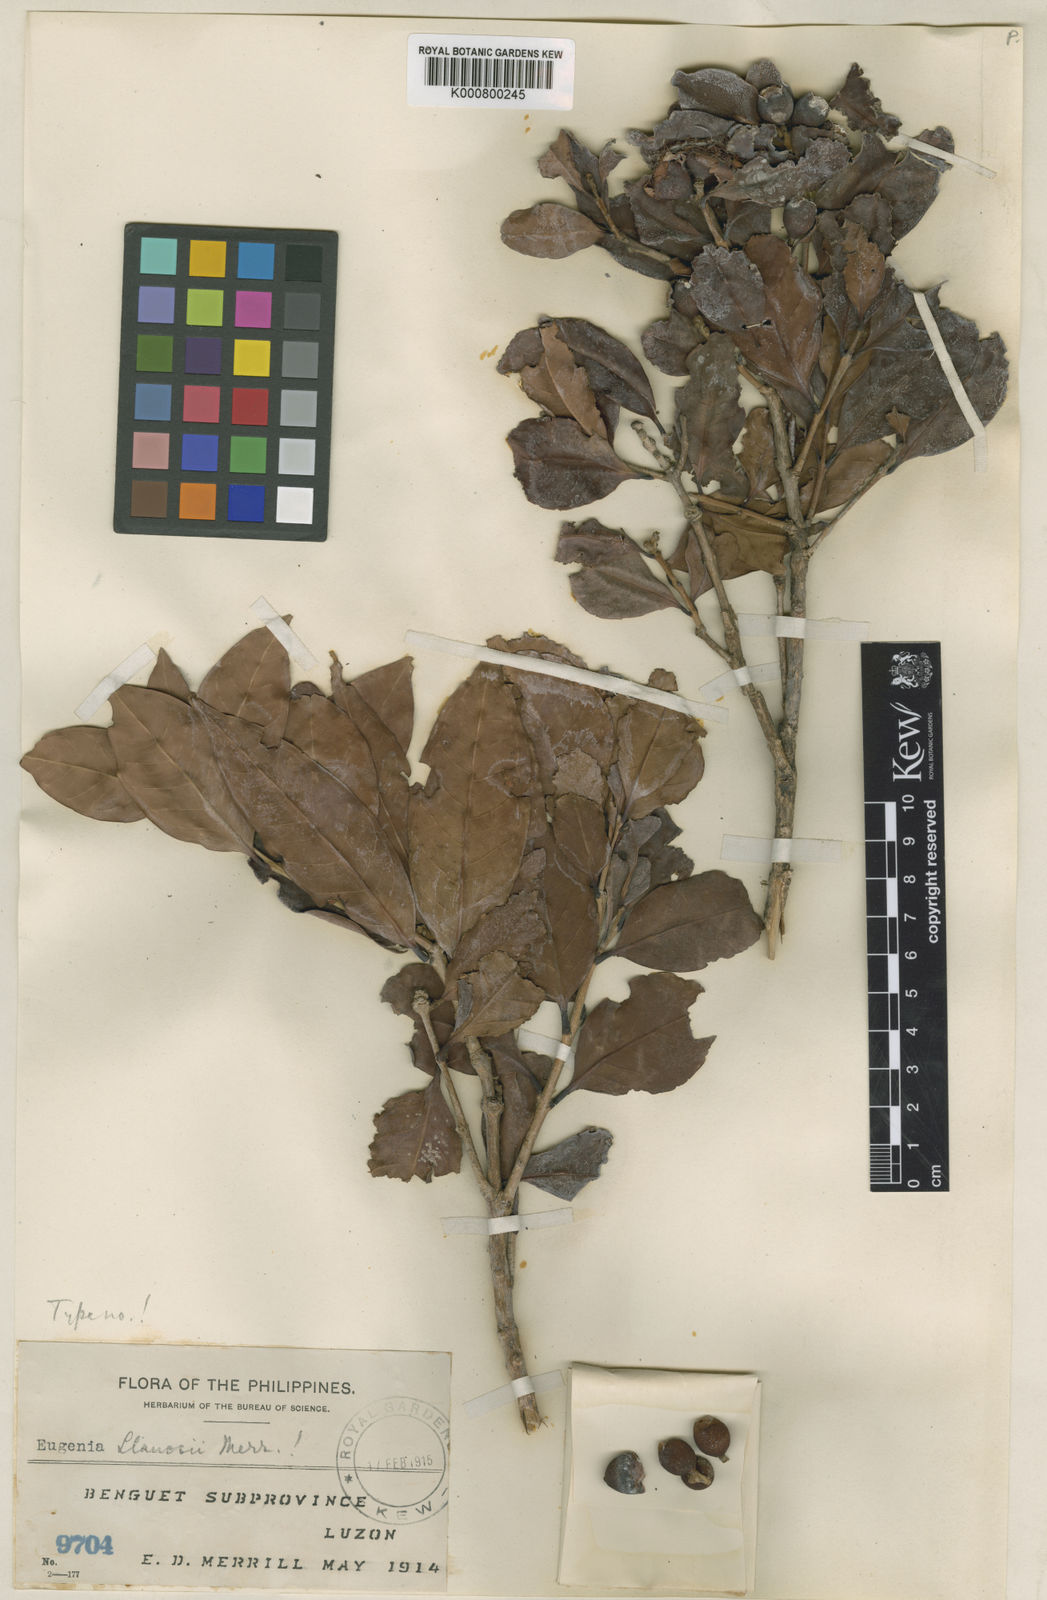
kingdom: Plantae
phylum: Tracheophyta
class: Magnoliopsida
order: Myrtales
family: Myrtaceae
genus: Syzygium
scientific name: Syzygium llanosii
